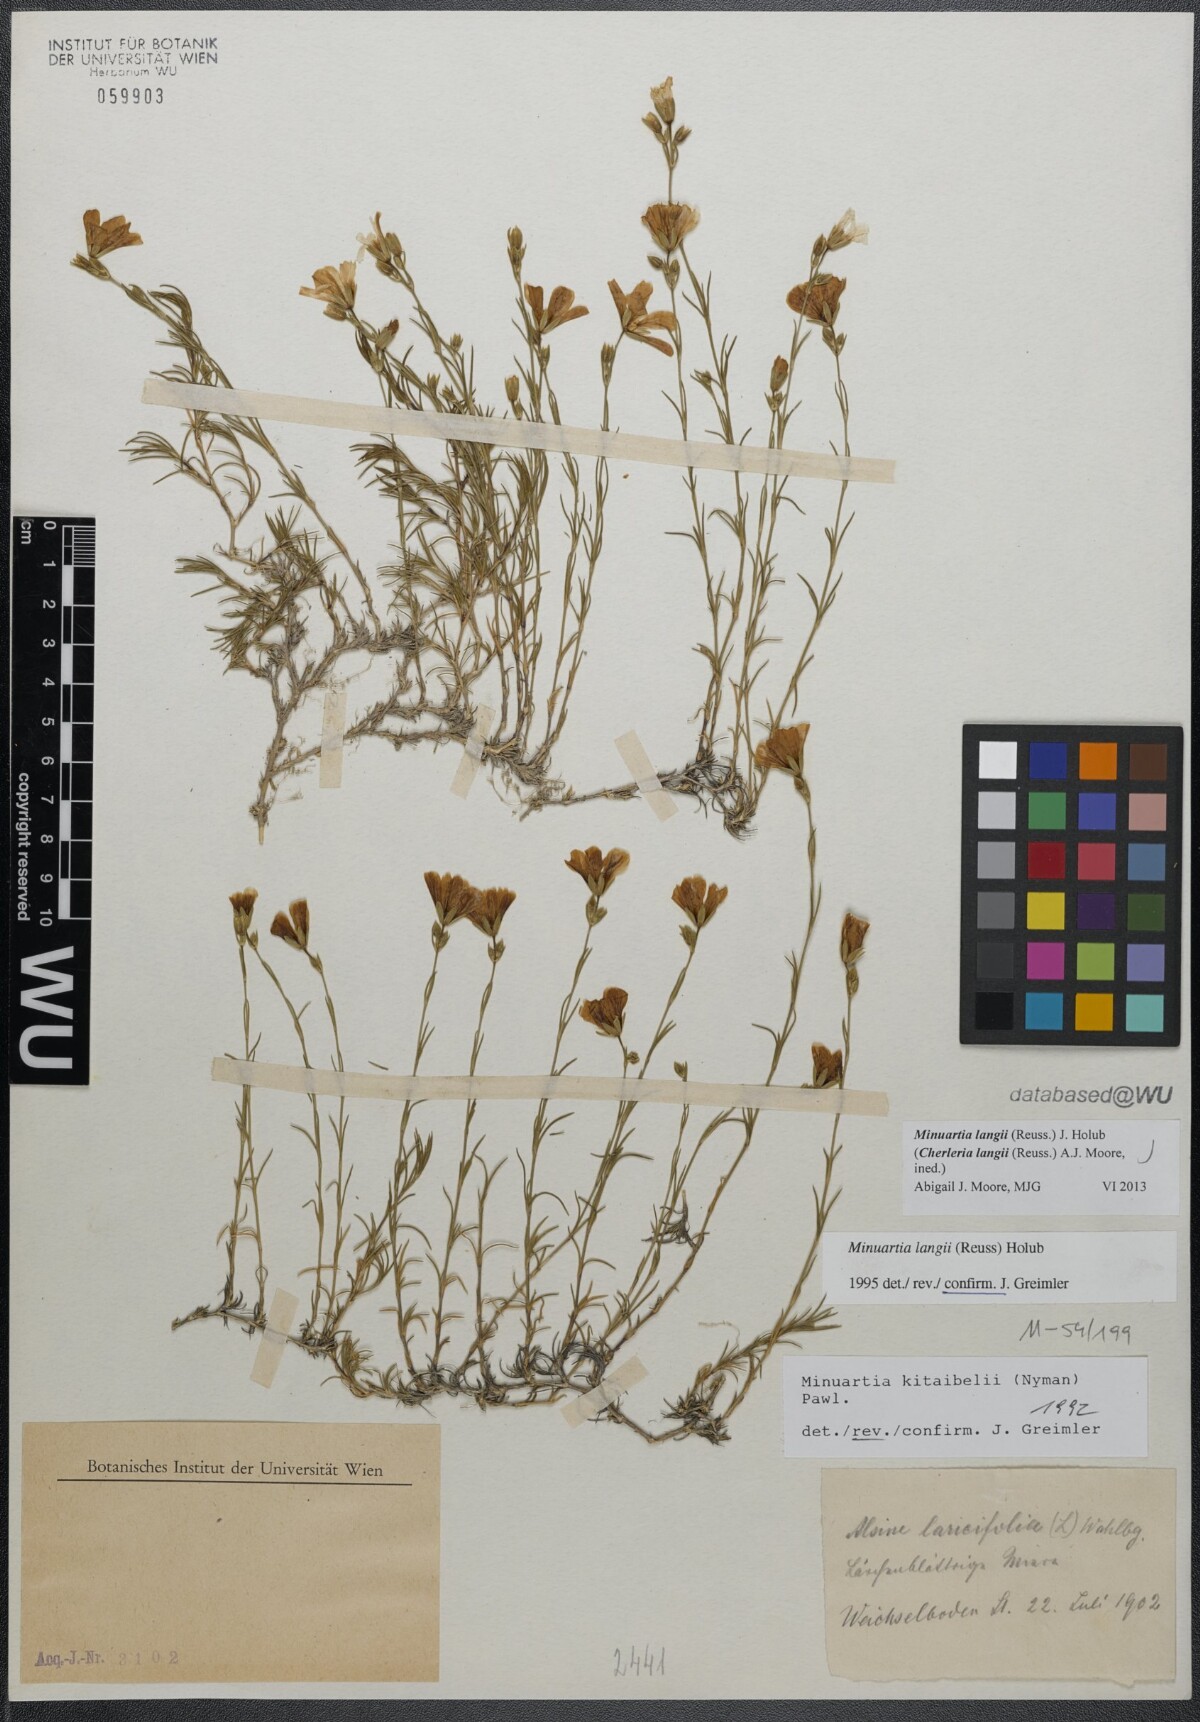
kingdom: Plantae
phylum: Tracheophyta
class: Magnoliopsida
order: Caryophyllales
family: Caryophyllaceae
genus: Cherleria
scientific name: Cherleria langii
